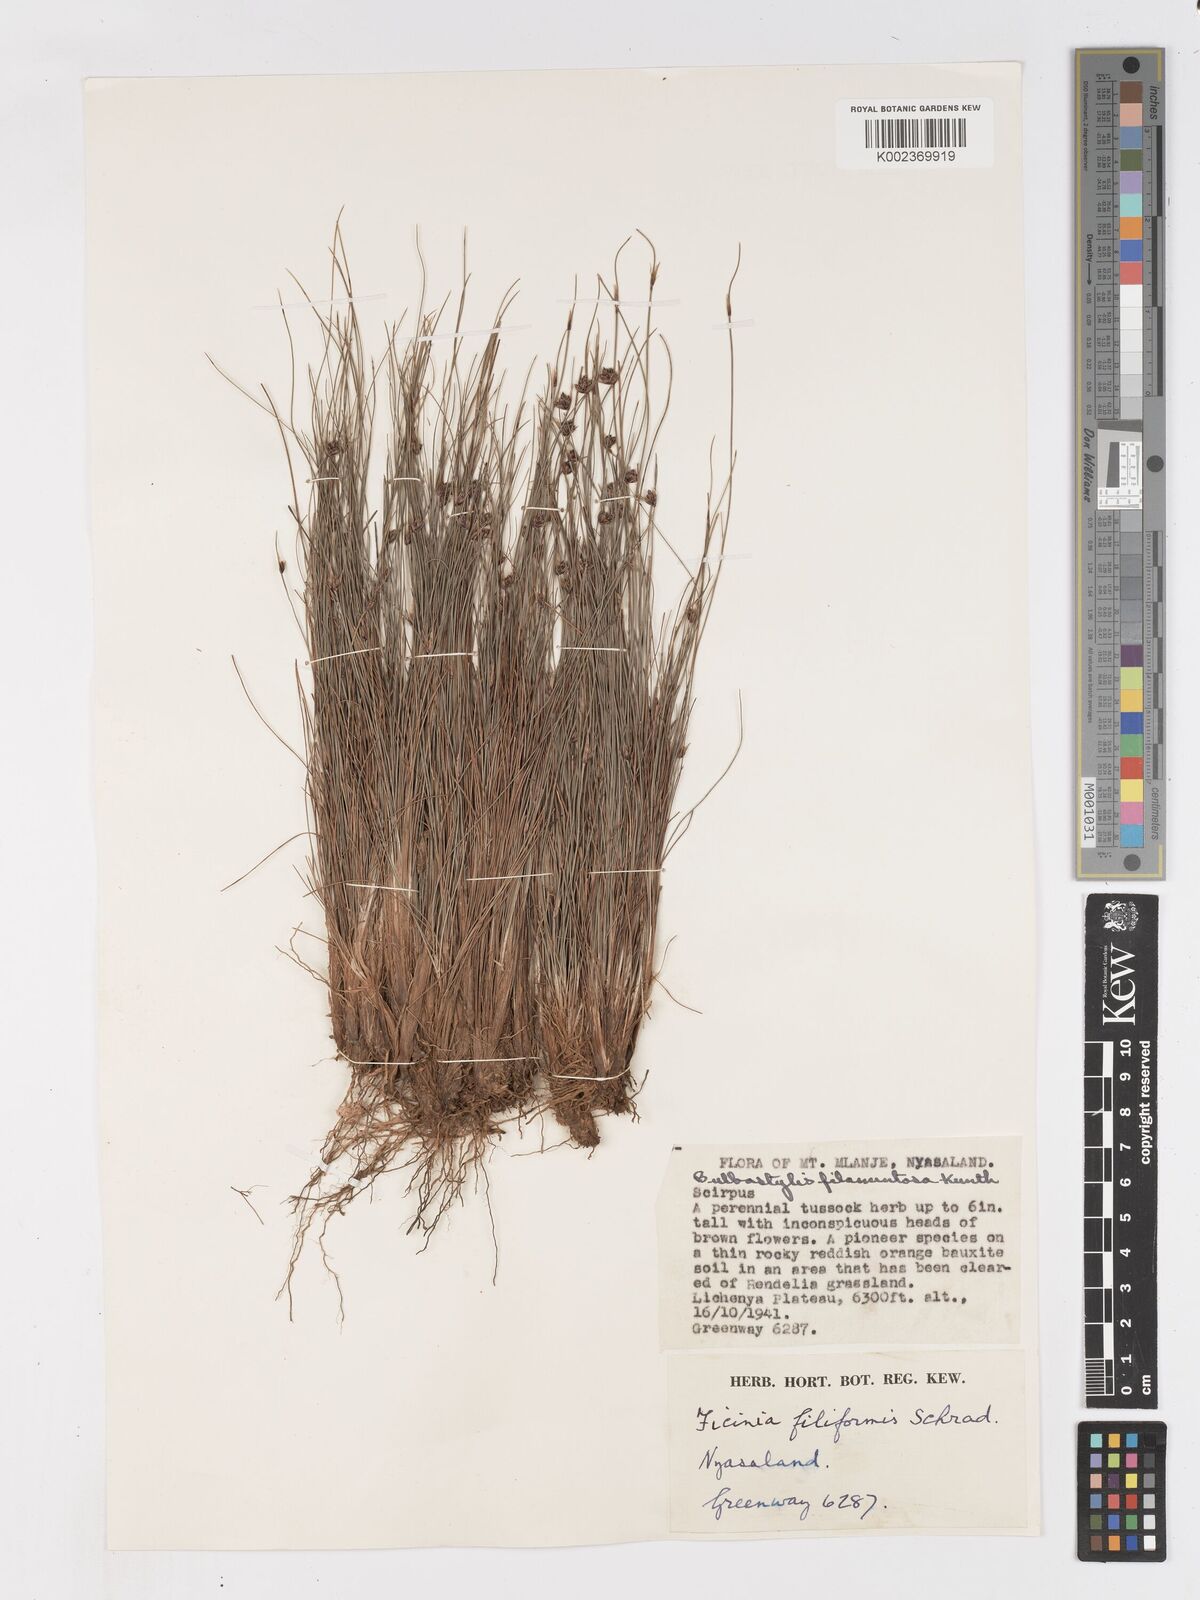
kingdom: Plantae
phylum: Tracheophyta
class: Liliopsida
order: Poales
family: Cyperaceae
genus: Ficinia
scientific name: Ficinia filiformis
